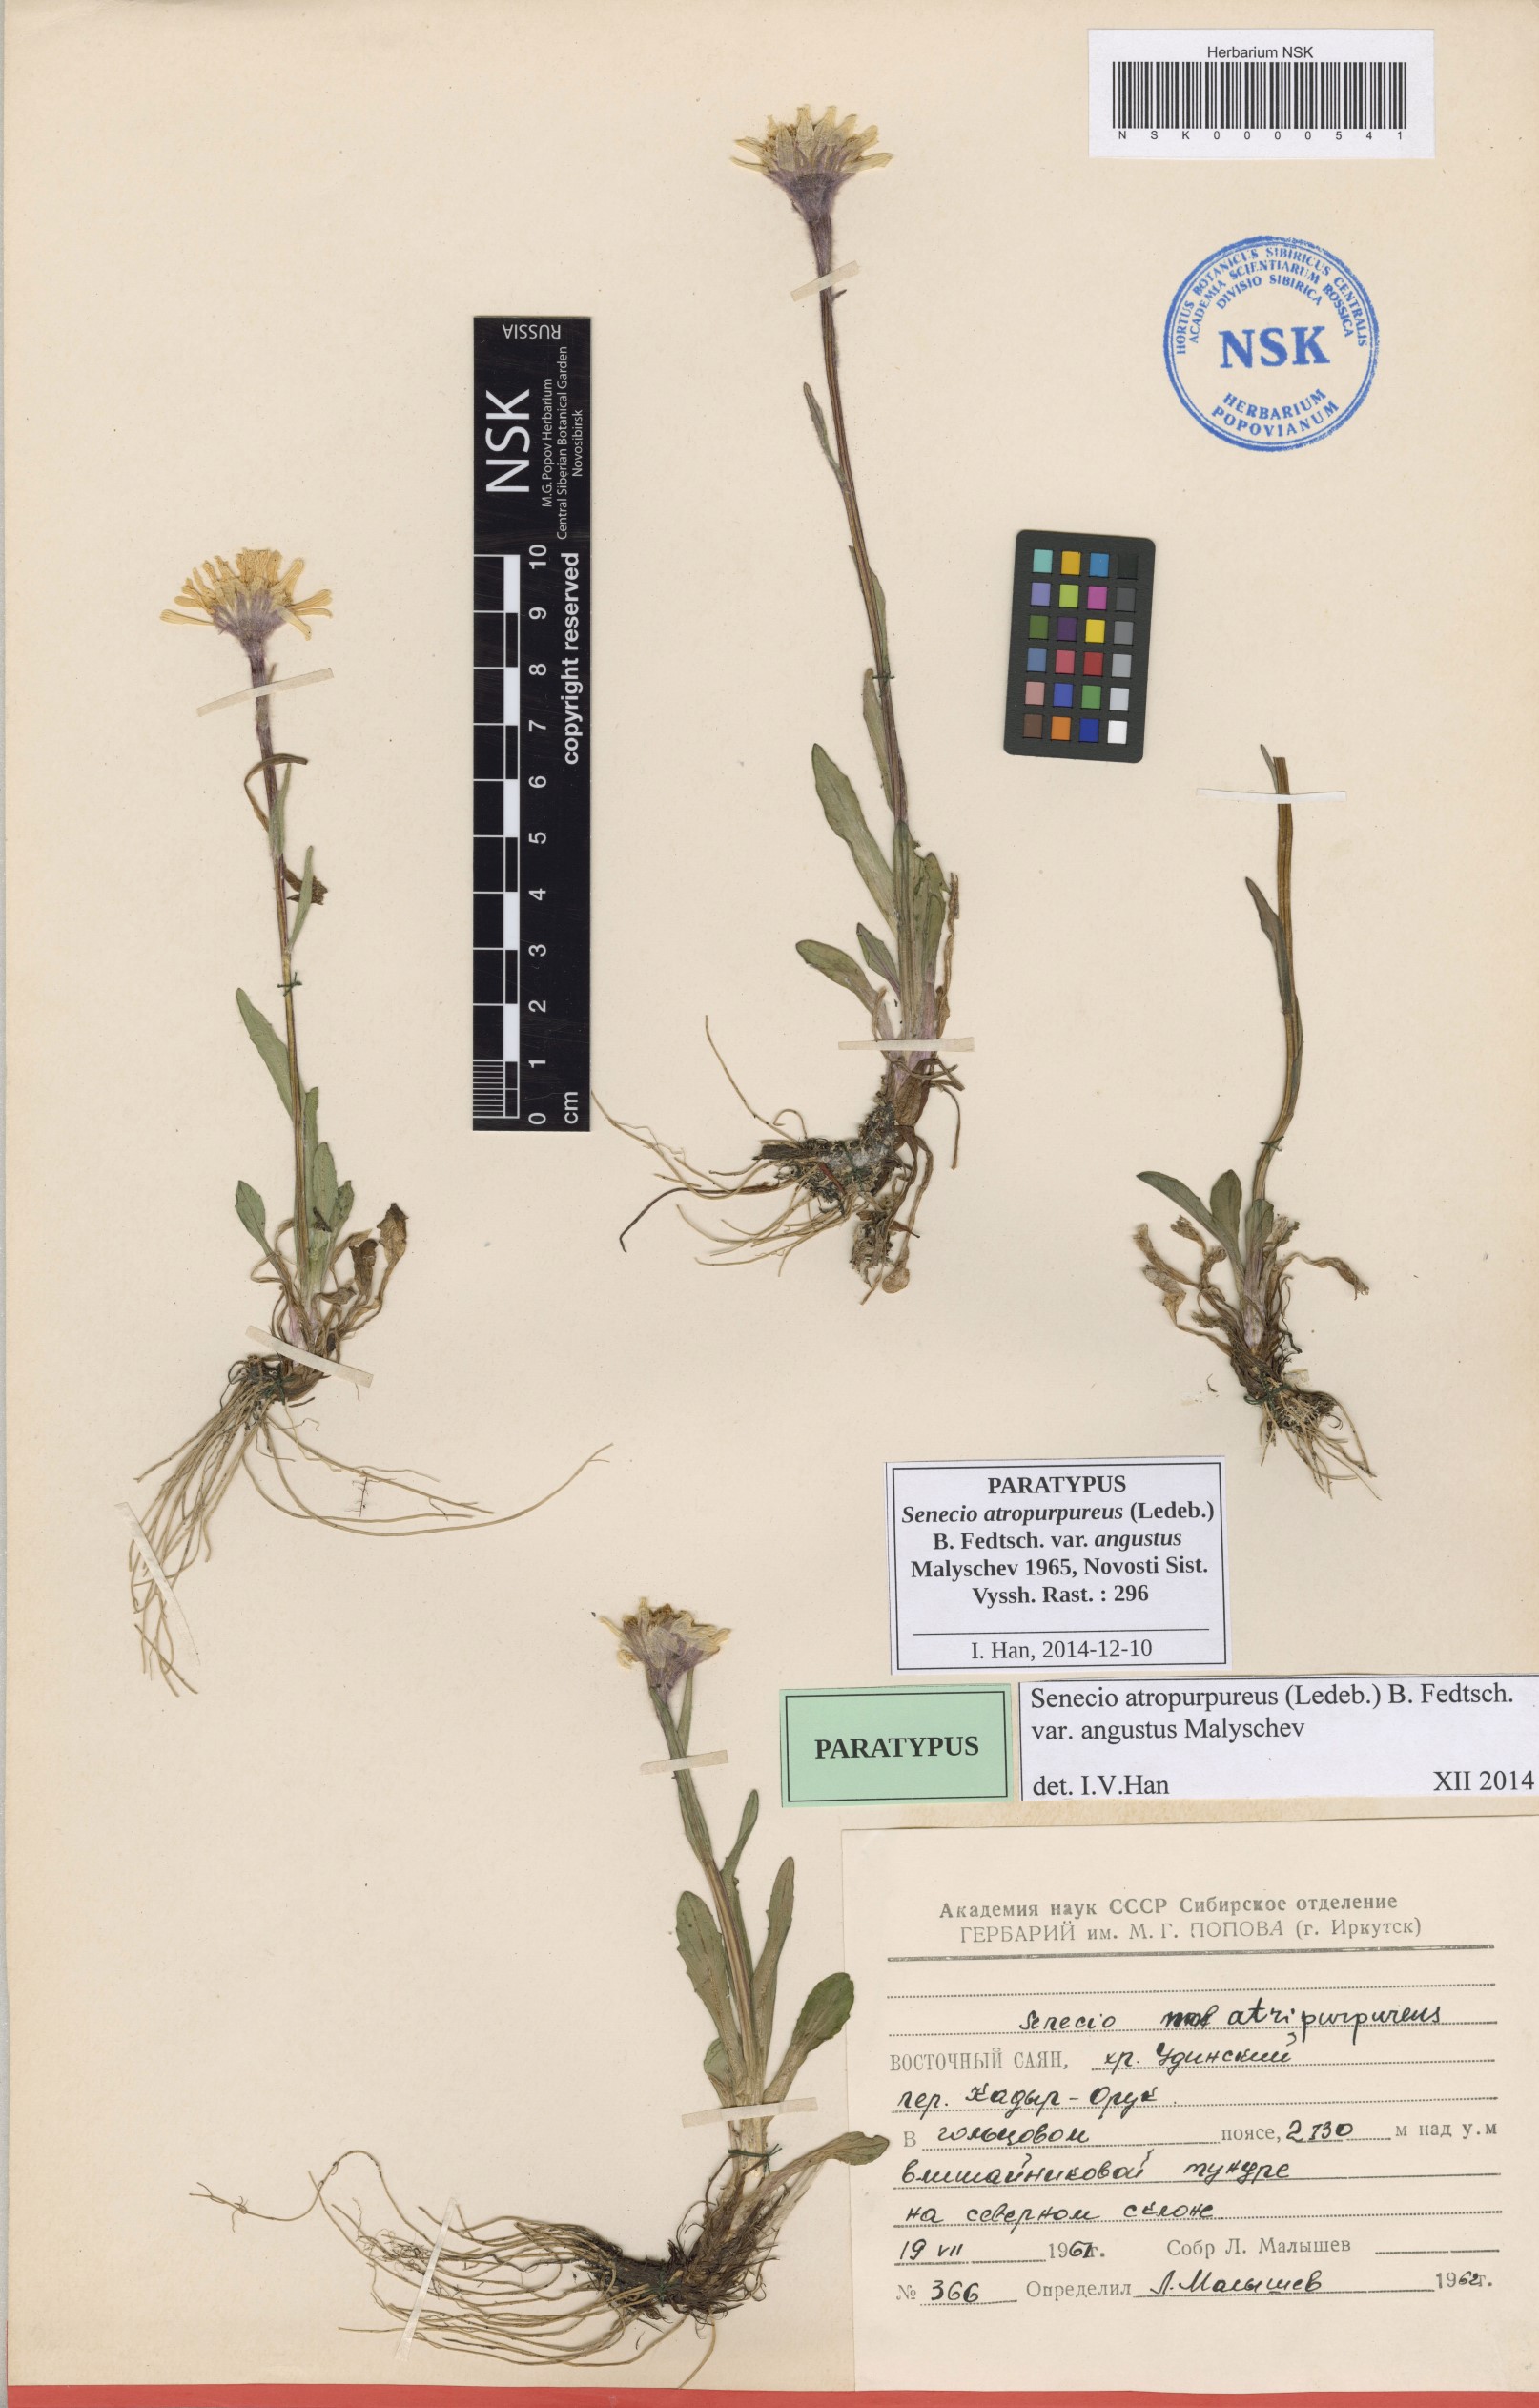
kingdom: Plantae
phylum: Tracheophyta
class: Magnoliopsida
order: Asterales
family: Asteraceae
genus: Tephroseris
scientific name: Tephroseris integrifolia
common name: Field fleawort
